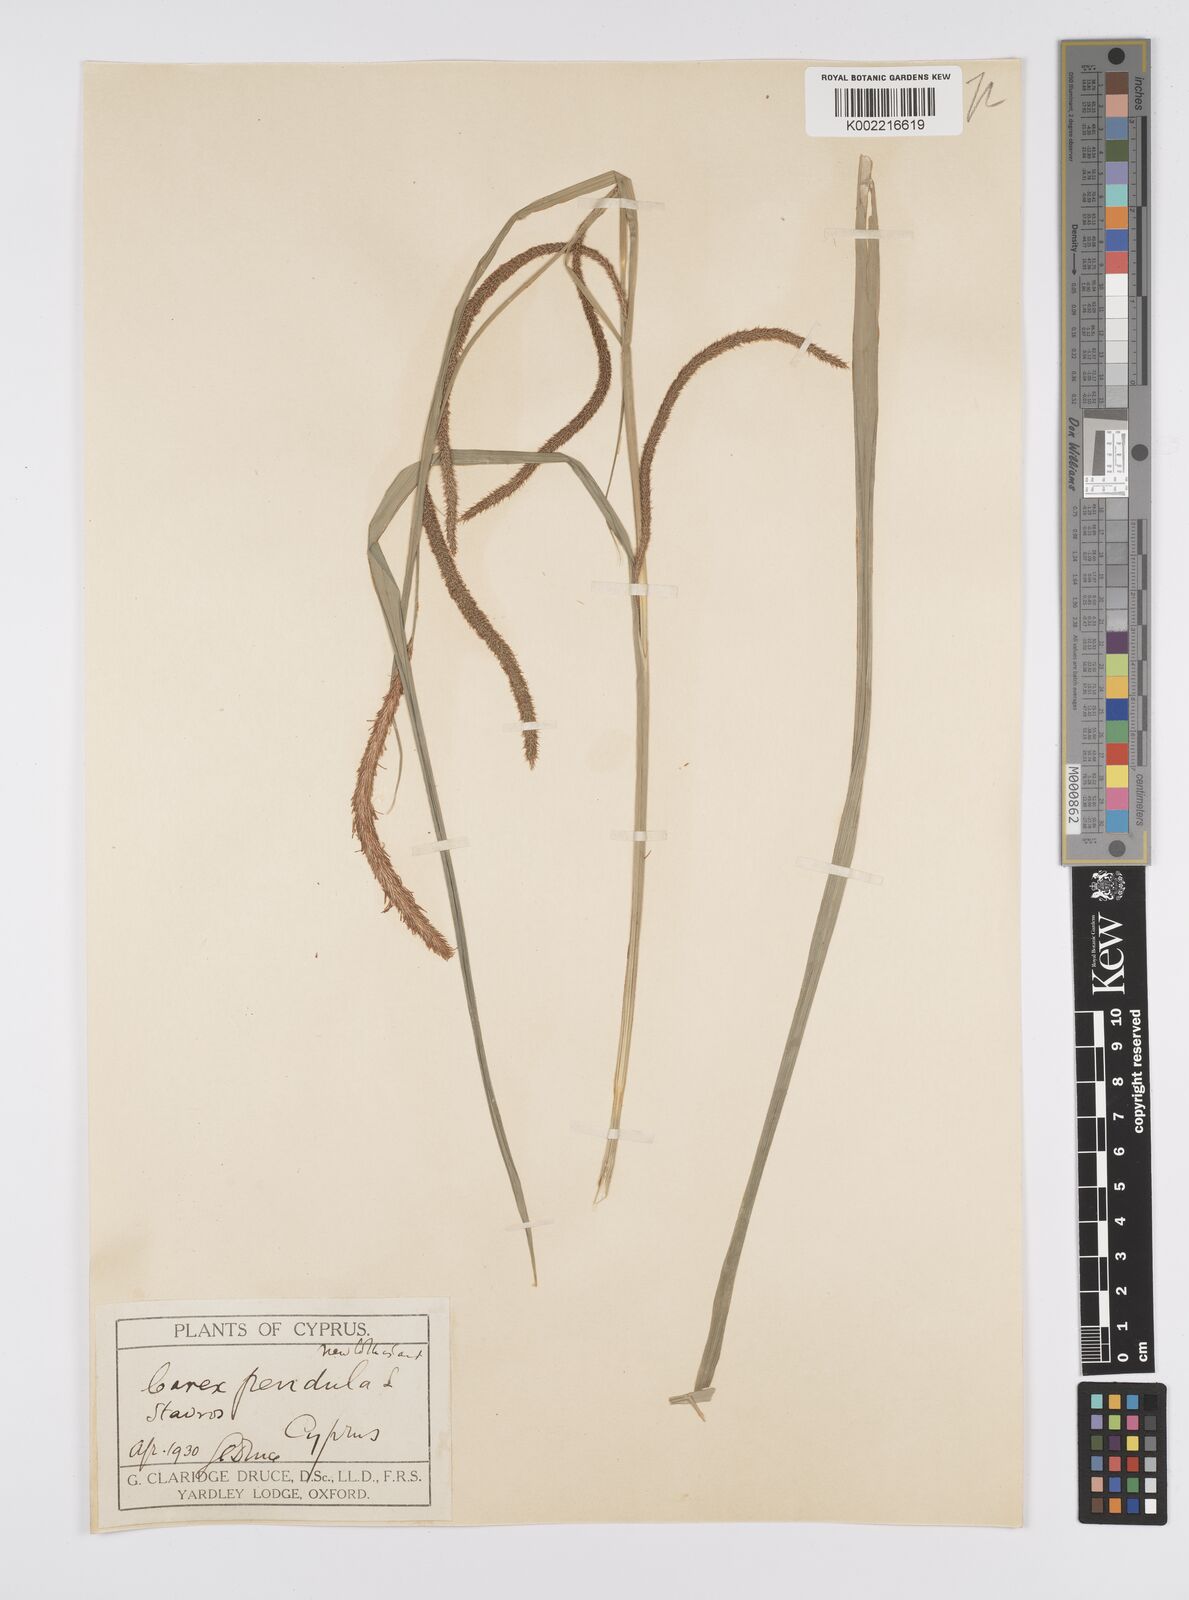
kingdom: Plantae
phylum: Tracheophyta
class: Liliopsida
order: Poales
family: Cyperaceae
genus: Carex
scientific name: Carex pendula
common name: Pendulous sedge
